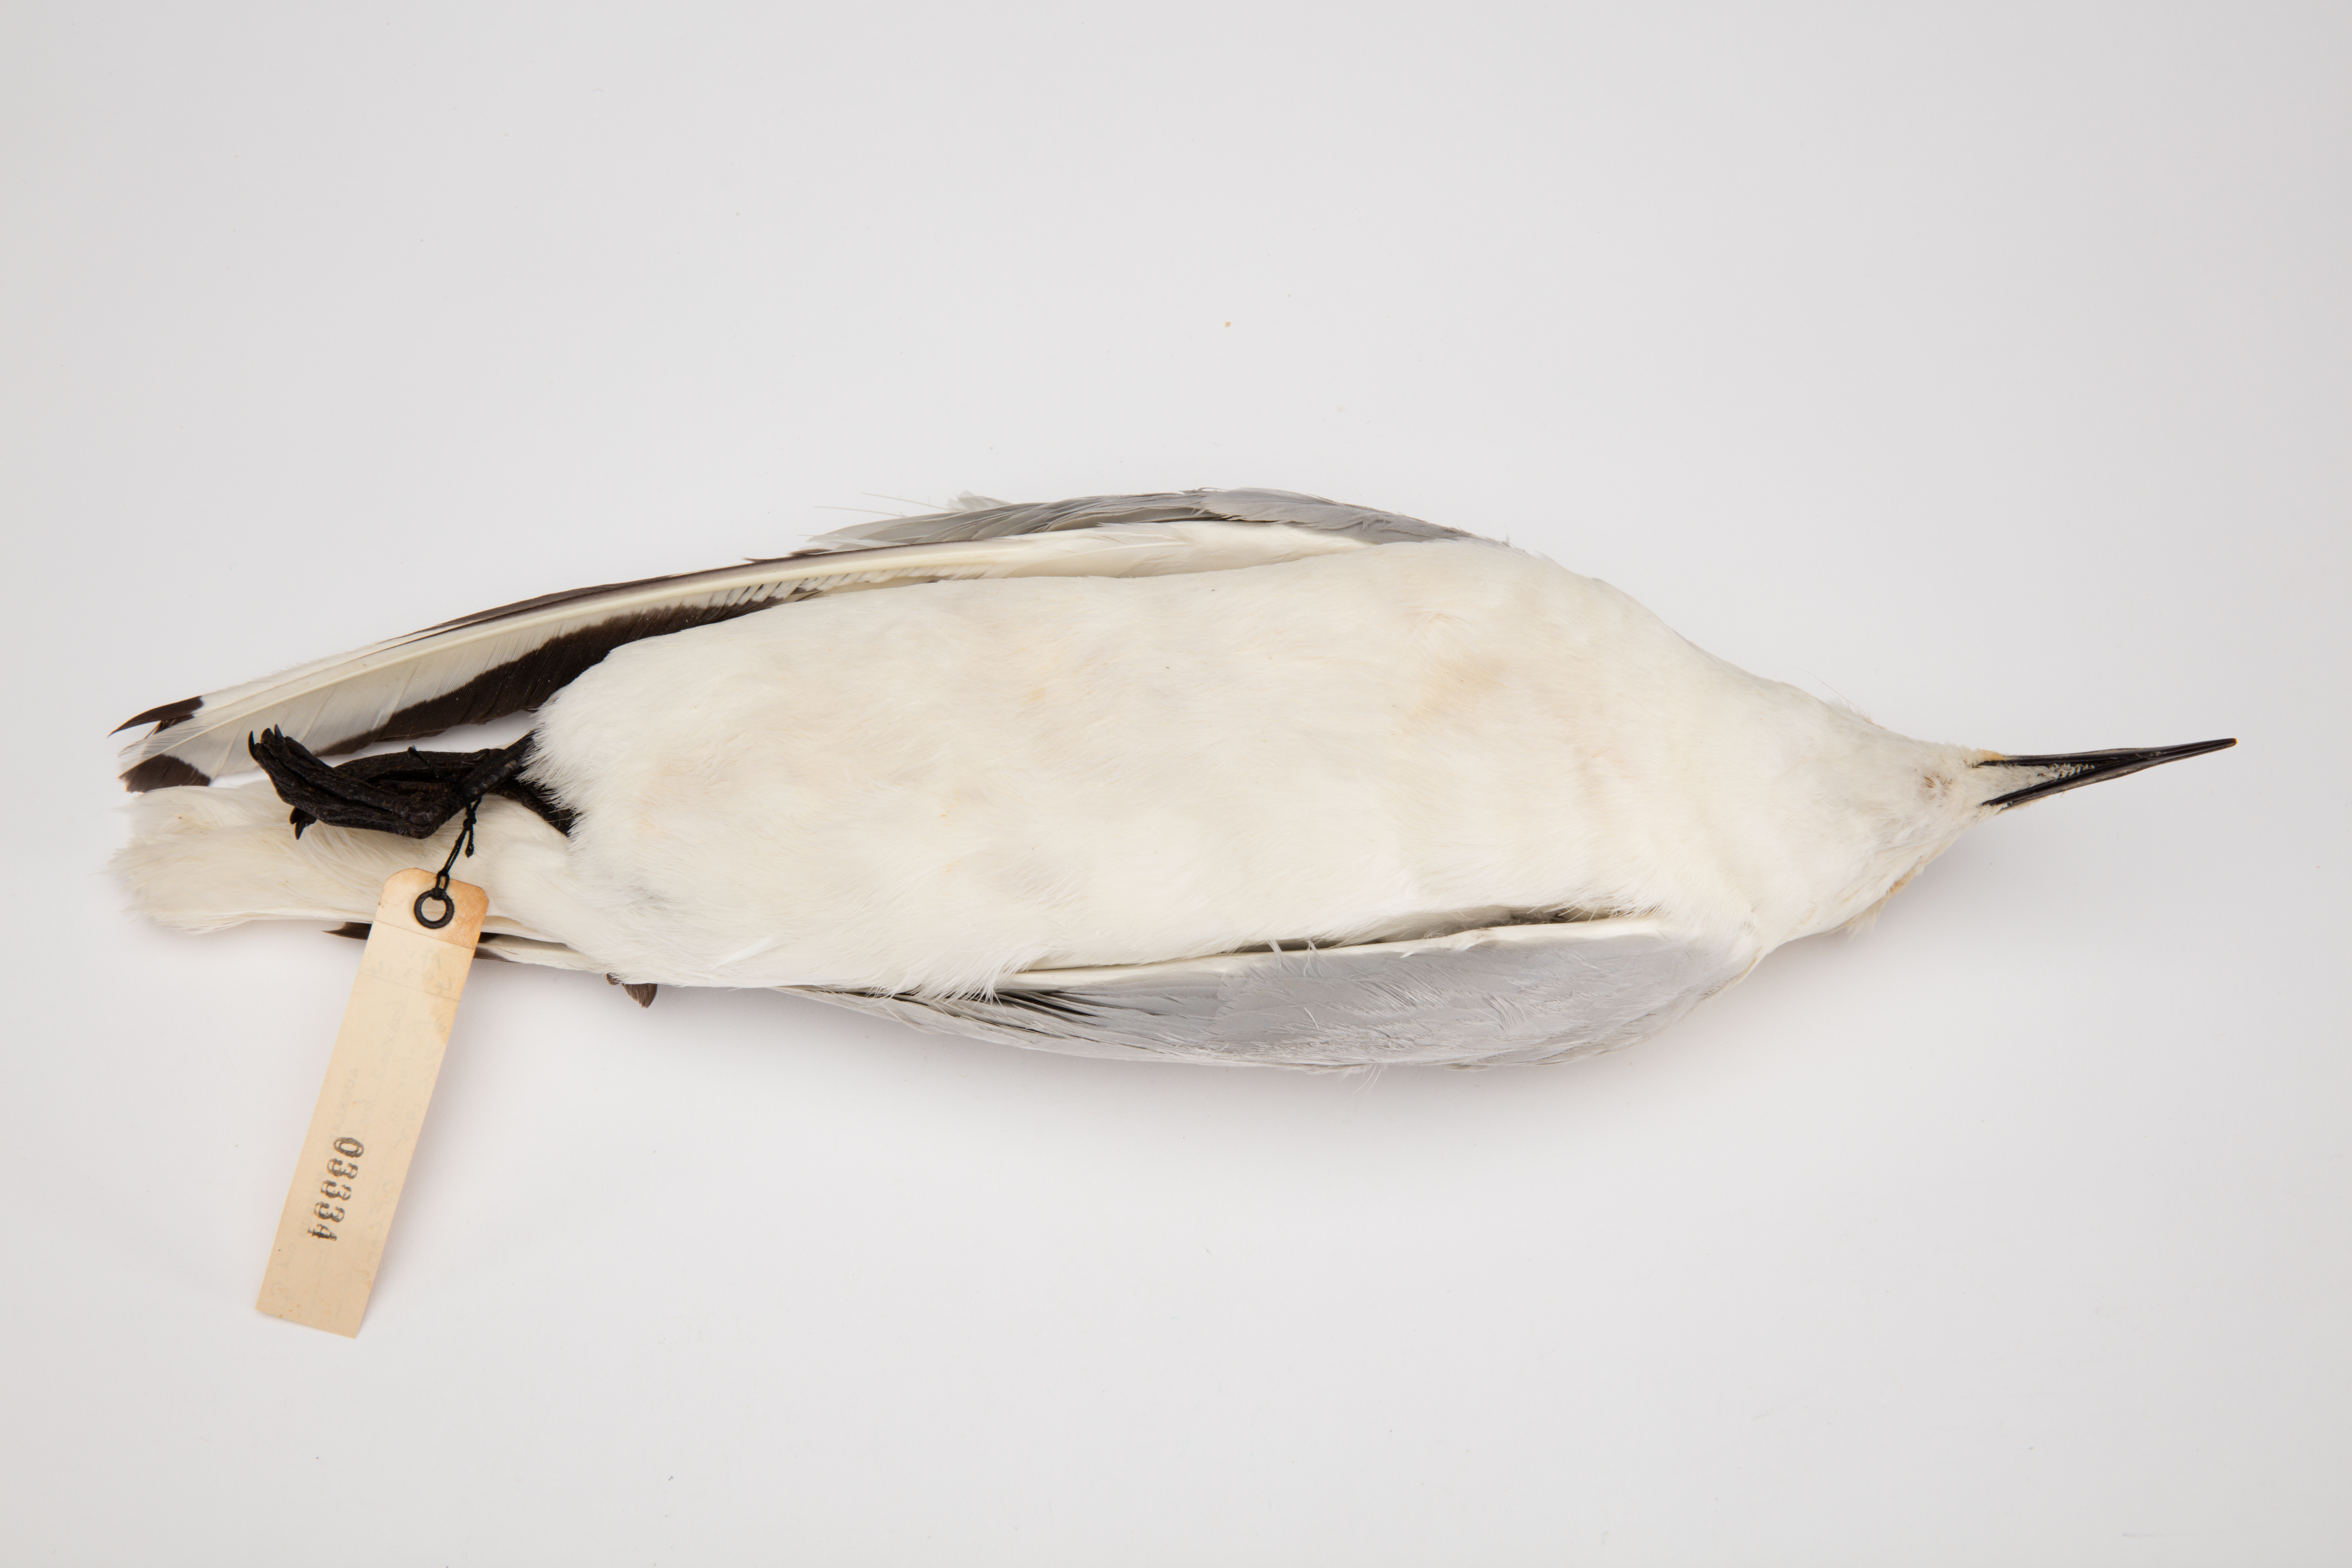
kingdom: Animalia
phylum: Chordata
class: Aves
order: Charadriiformes
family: Laridae
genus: Chroicocephalus
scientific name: Chroicocephalus bulleri
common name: Black-billed gull
